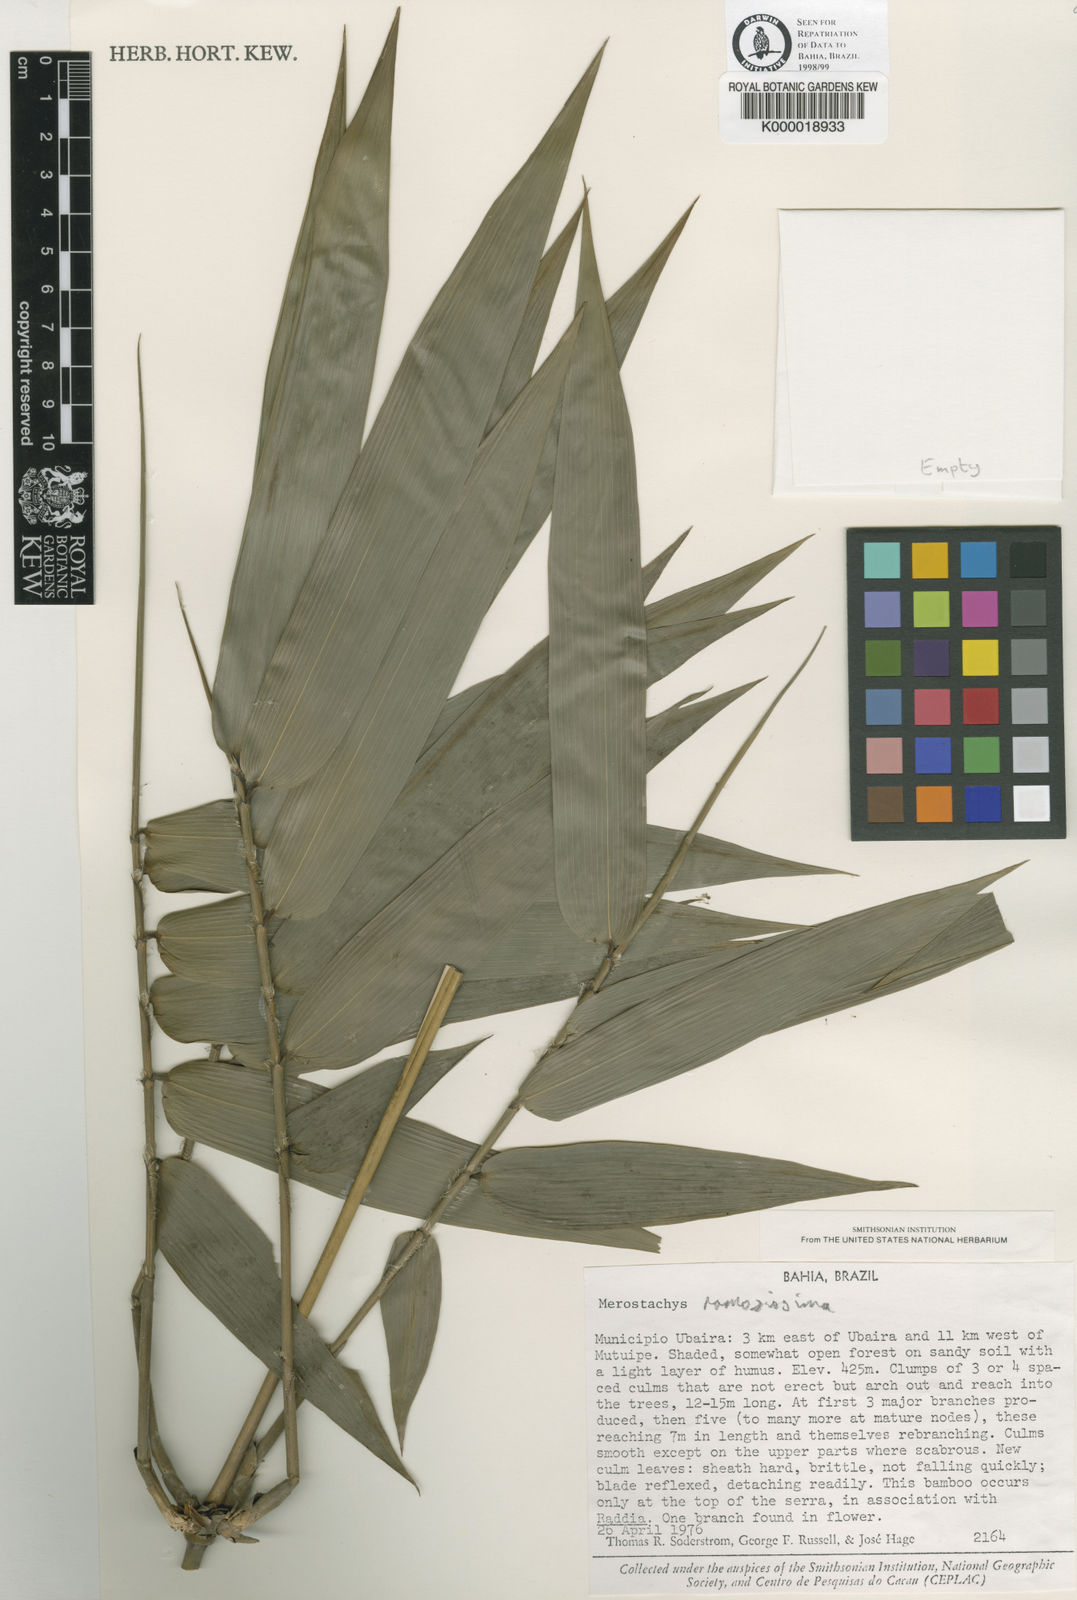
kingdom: Plantae
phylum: Tracheophyta
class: Liliopsida
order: Poales
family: Poaceae
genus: Merostachys
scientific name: Merostachys ramosissima
